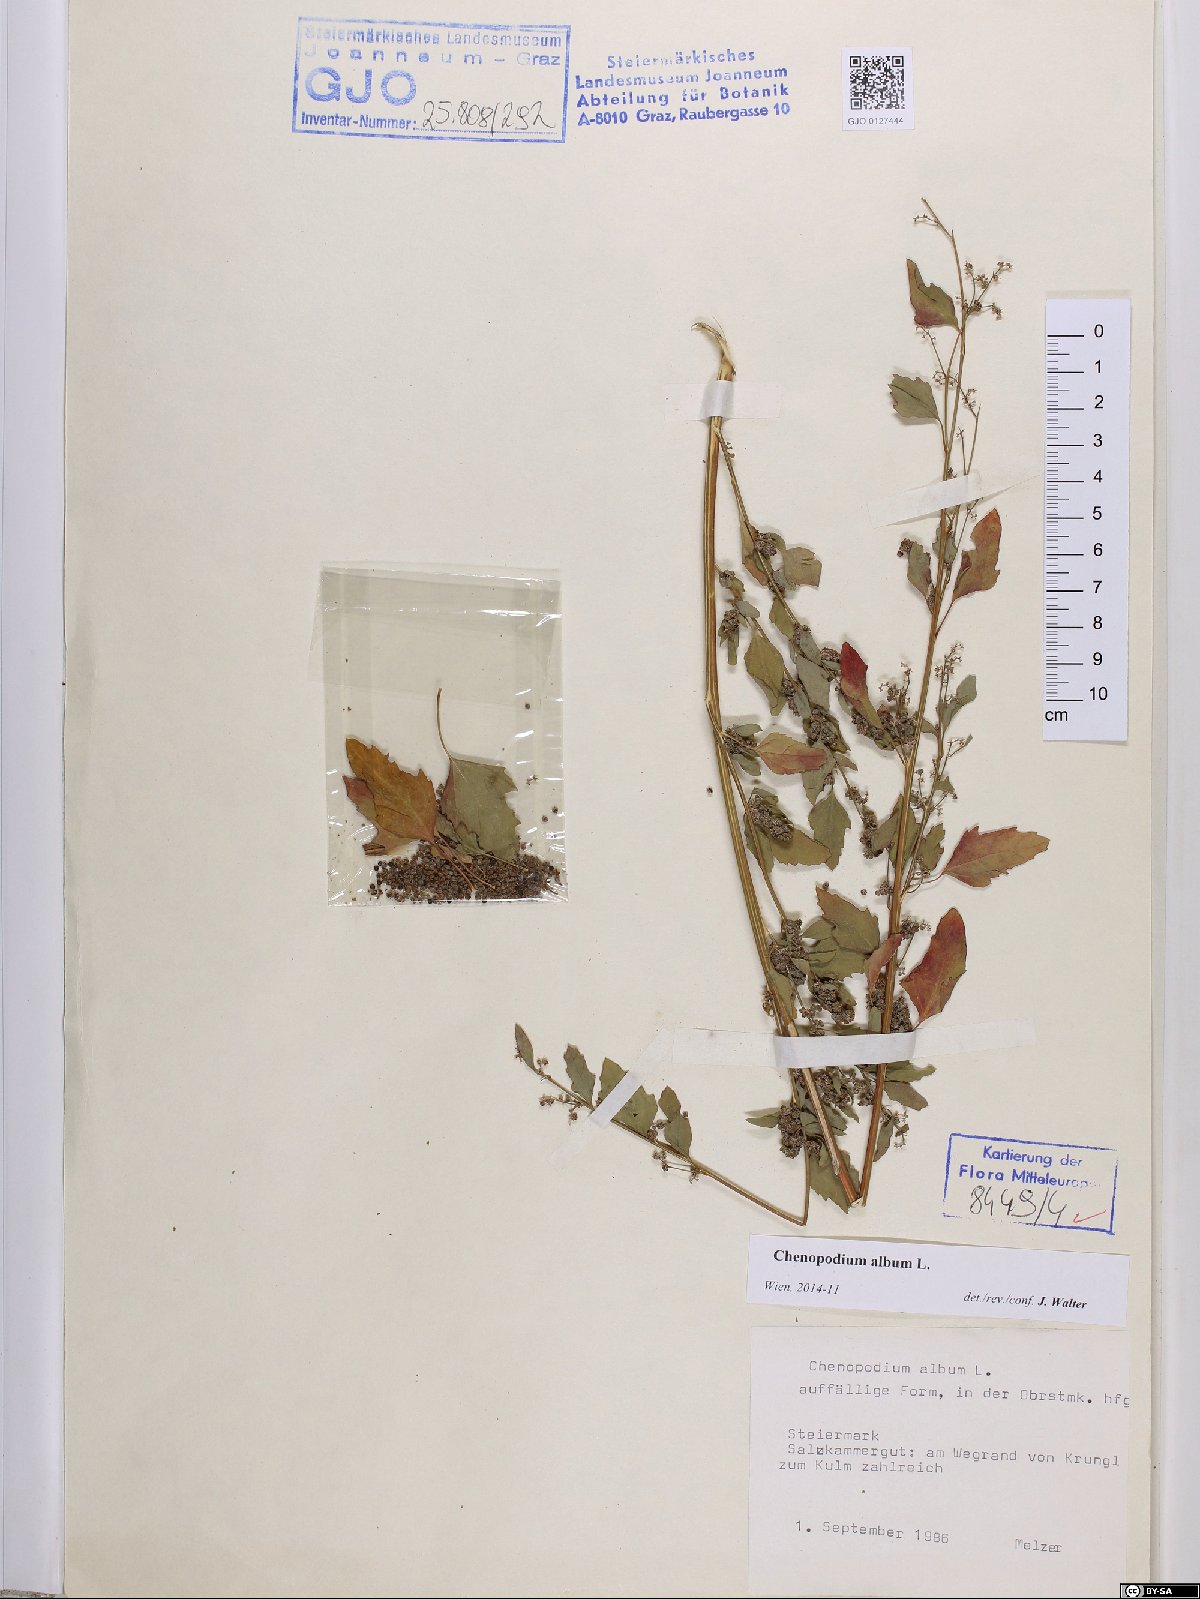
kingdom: Plantae
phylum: Tracheophyta
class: Magnoliopsida
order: Caryophyllales
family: Amaranthaceae
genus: Chenopodium
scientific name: Chenopodium album
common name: Fat-hen
